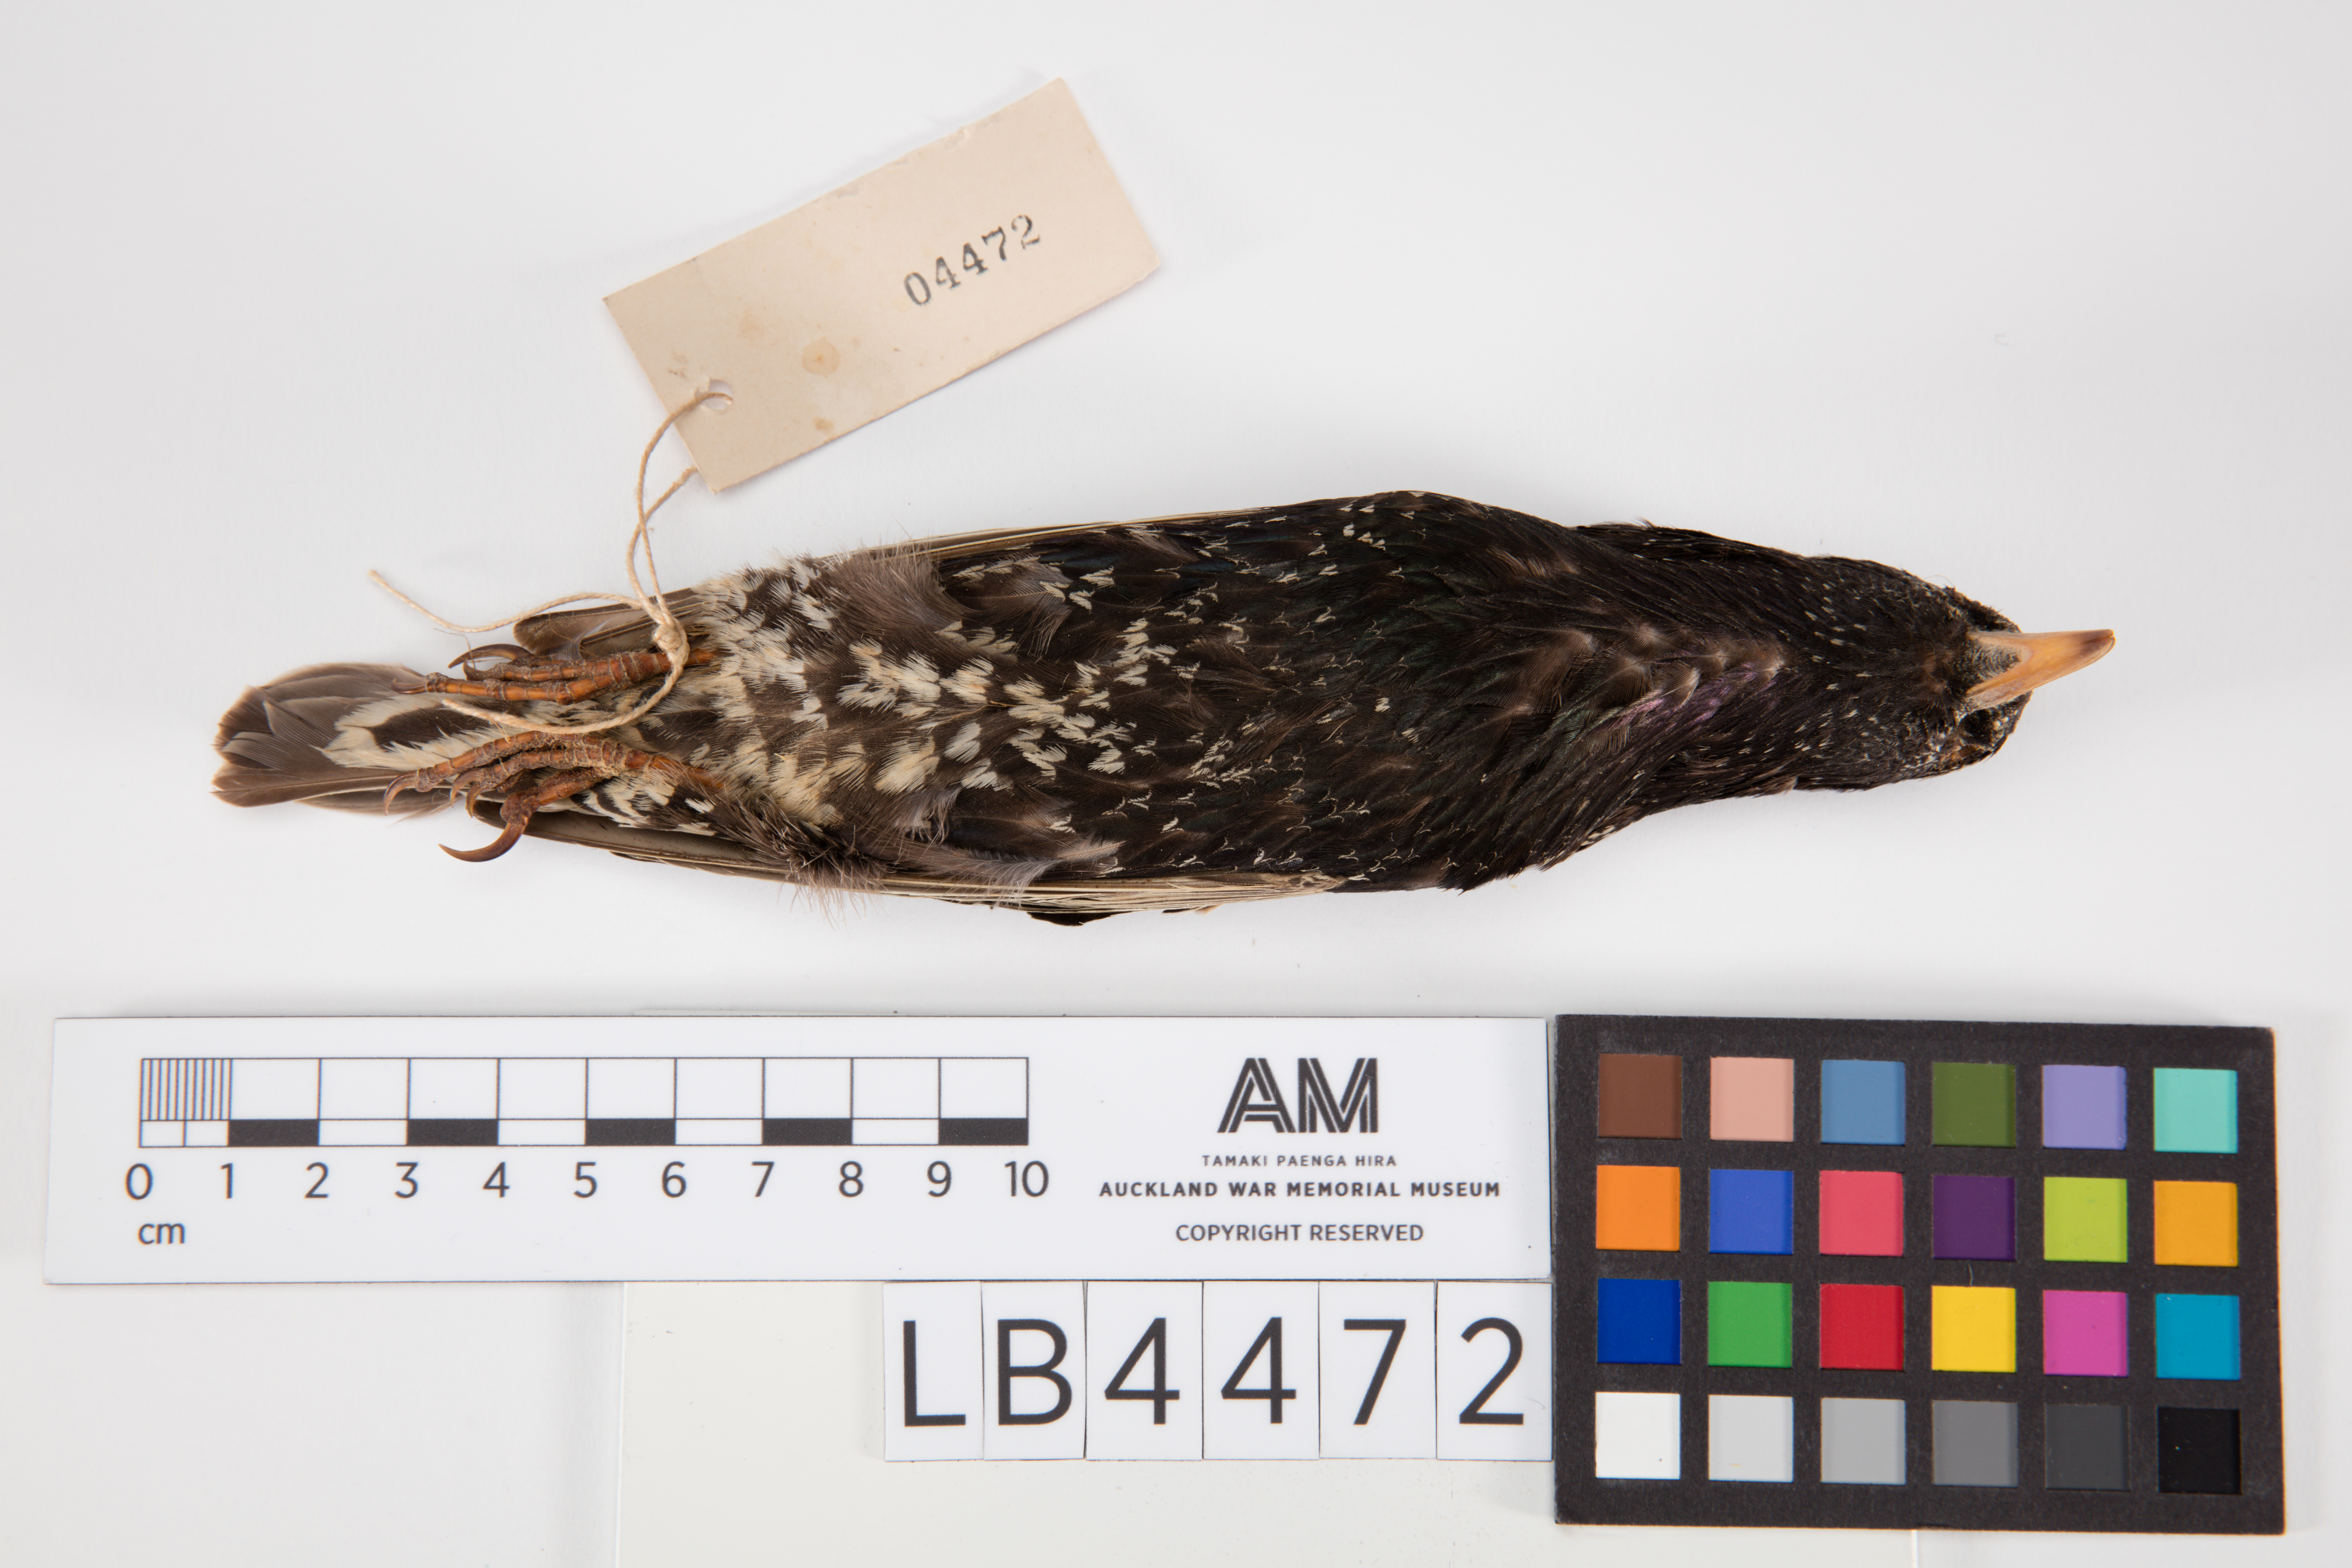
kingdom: Animalia
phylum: Chordata
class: Aves
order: Passeriformes
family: Sturnidae
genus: Sturnus
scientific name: Sturnus vulgaris
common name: Common starling
